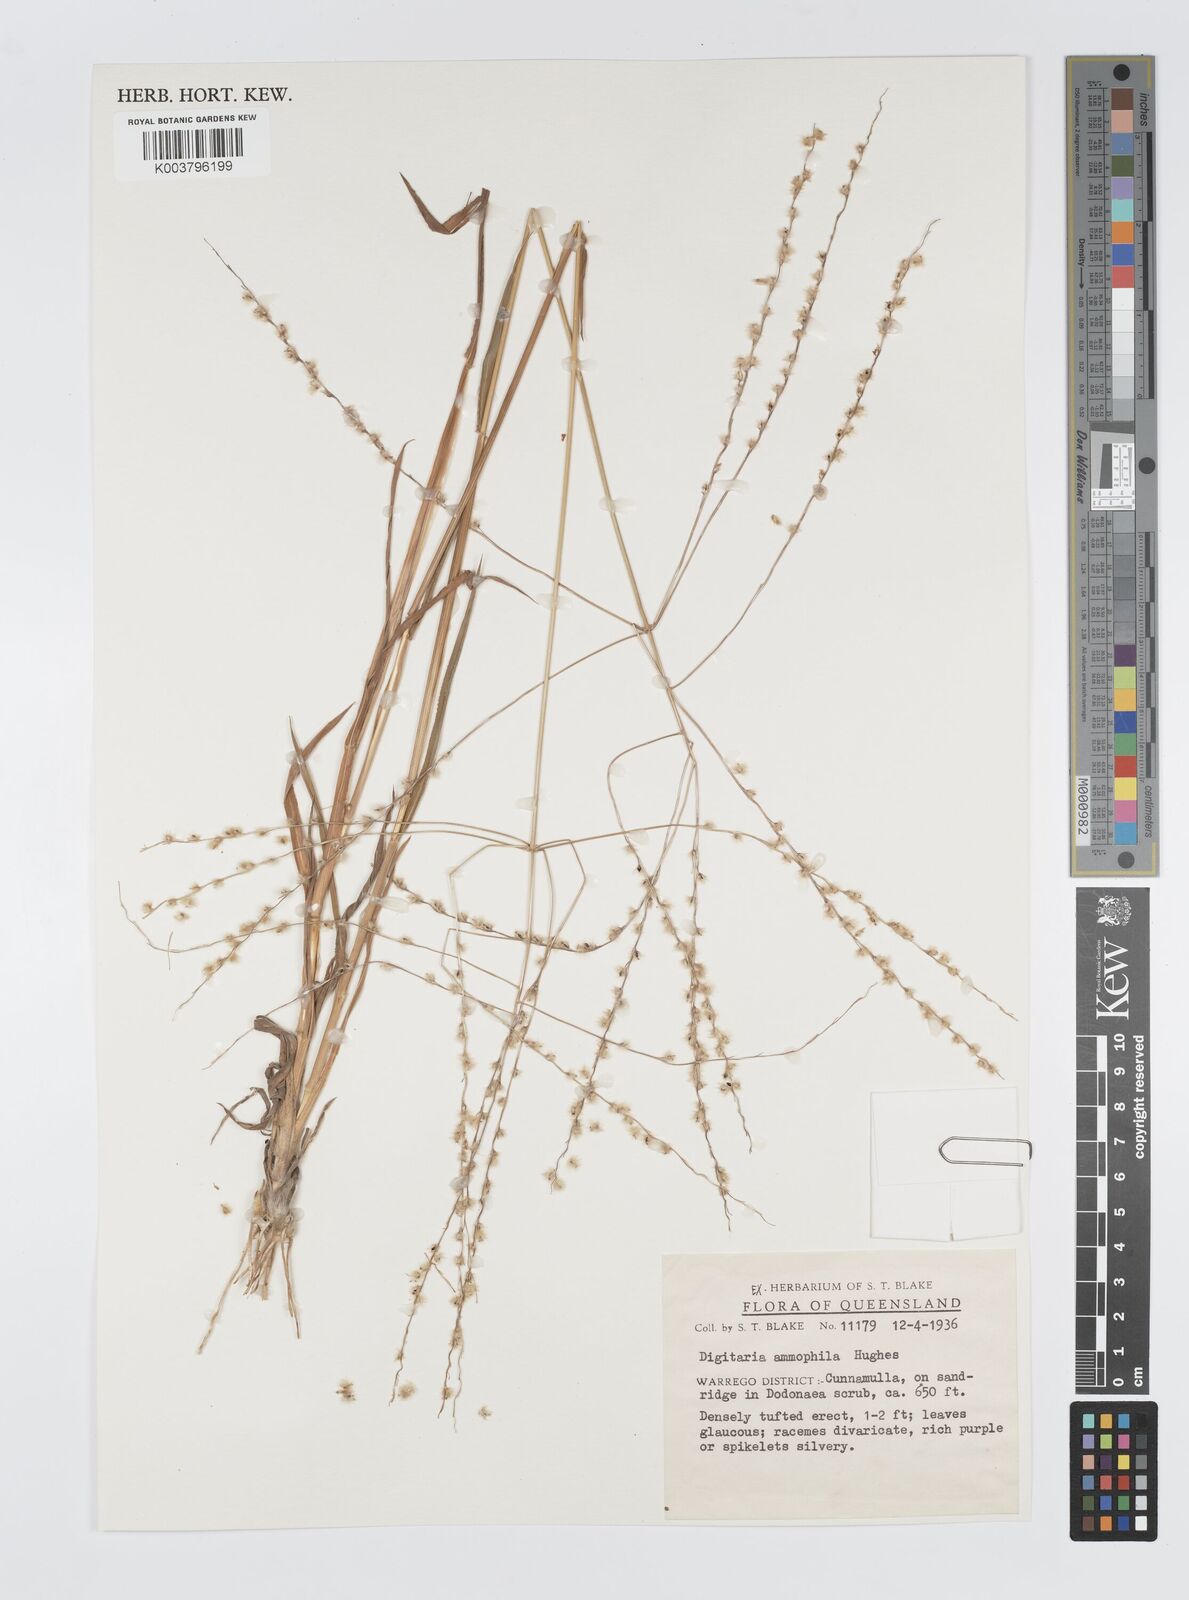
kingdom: Plantae
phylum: Tracheophyta
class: Liliopsida
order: Poales
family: Poaceae
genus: Digitaria
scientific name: Digitaria ammophila
